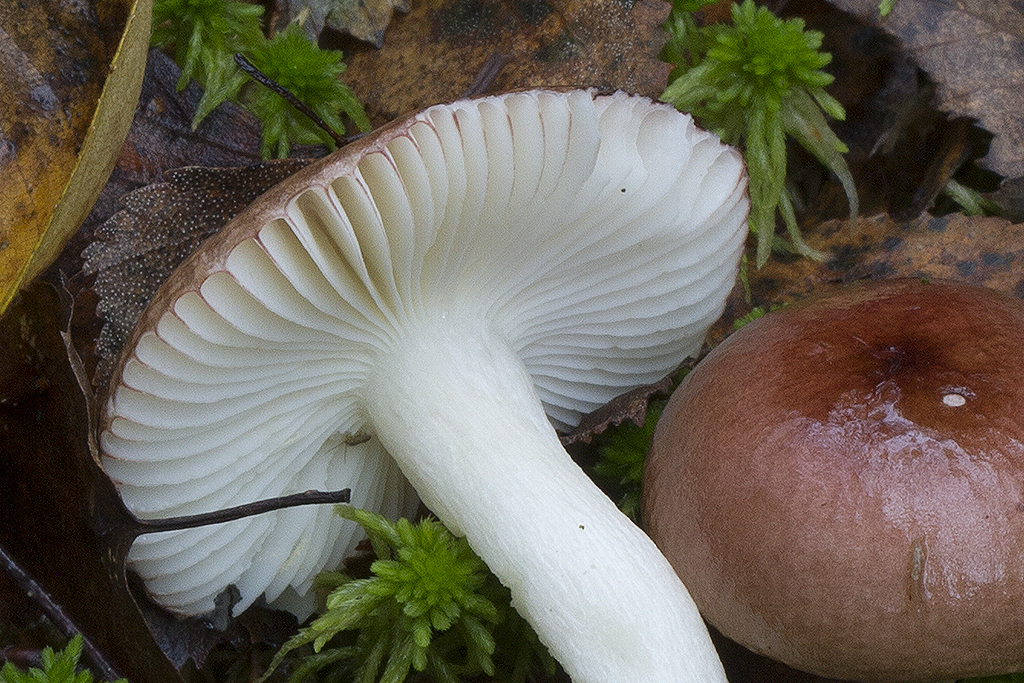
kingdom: Fungi
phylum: Basidiomycota
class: Agaricomycetes
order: Russulales
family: Russulaceae
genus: Russula
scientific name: Russula saliceticola
